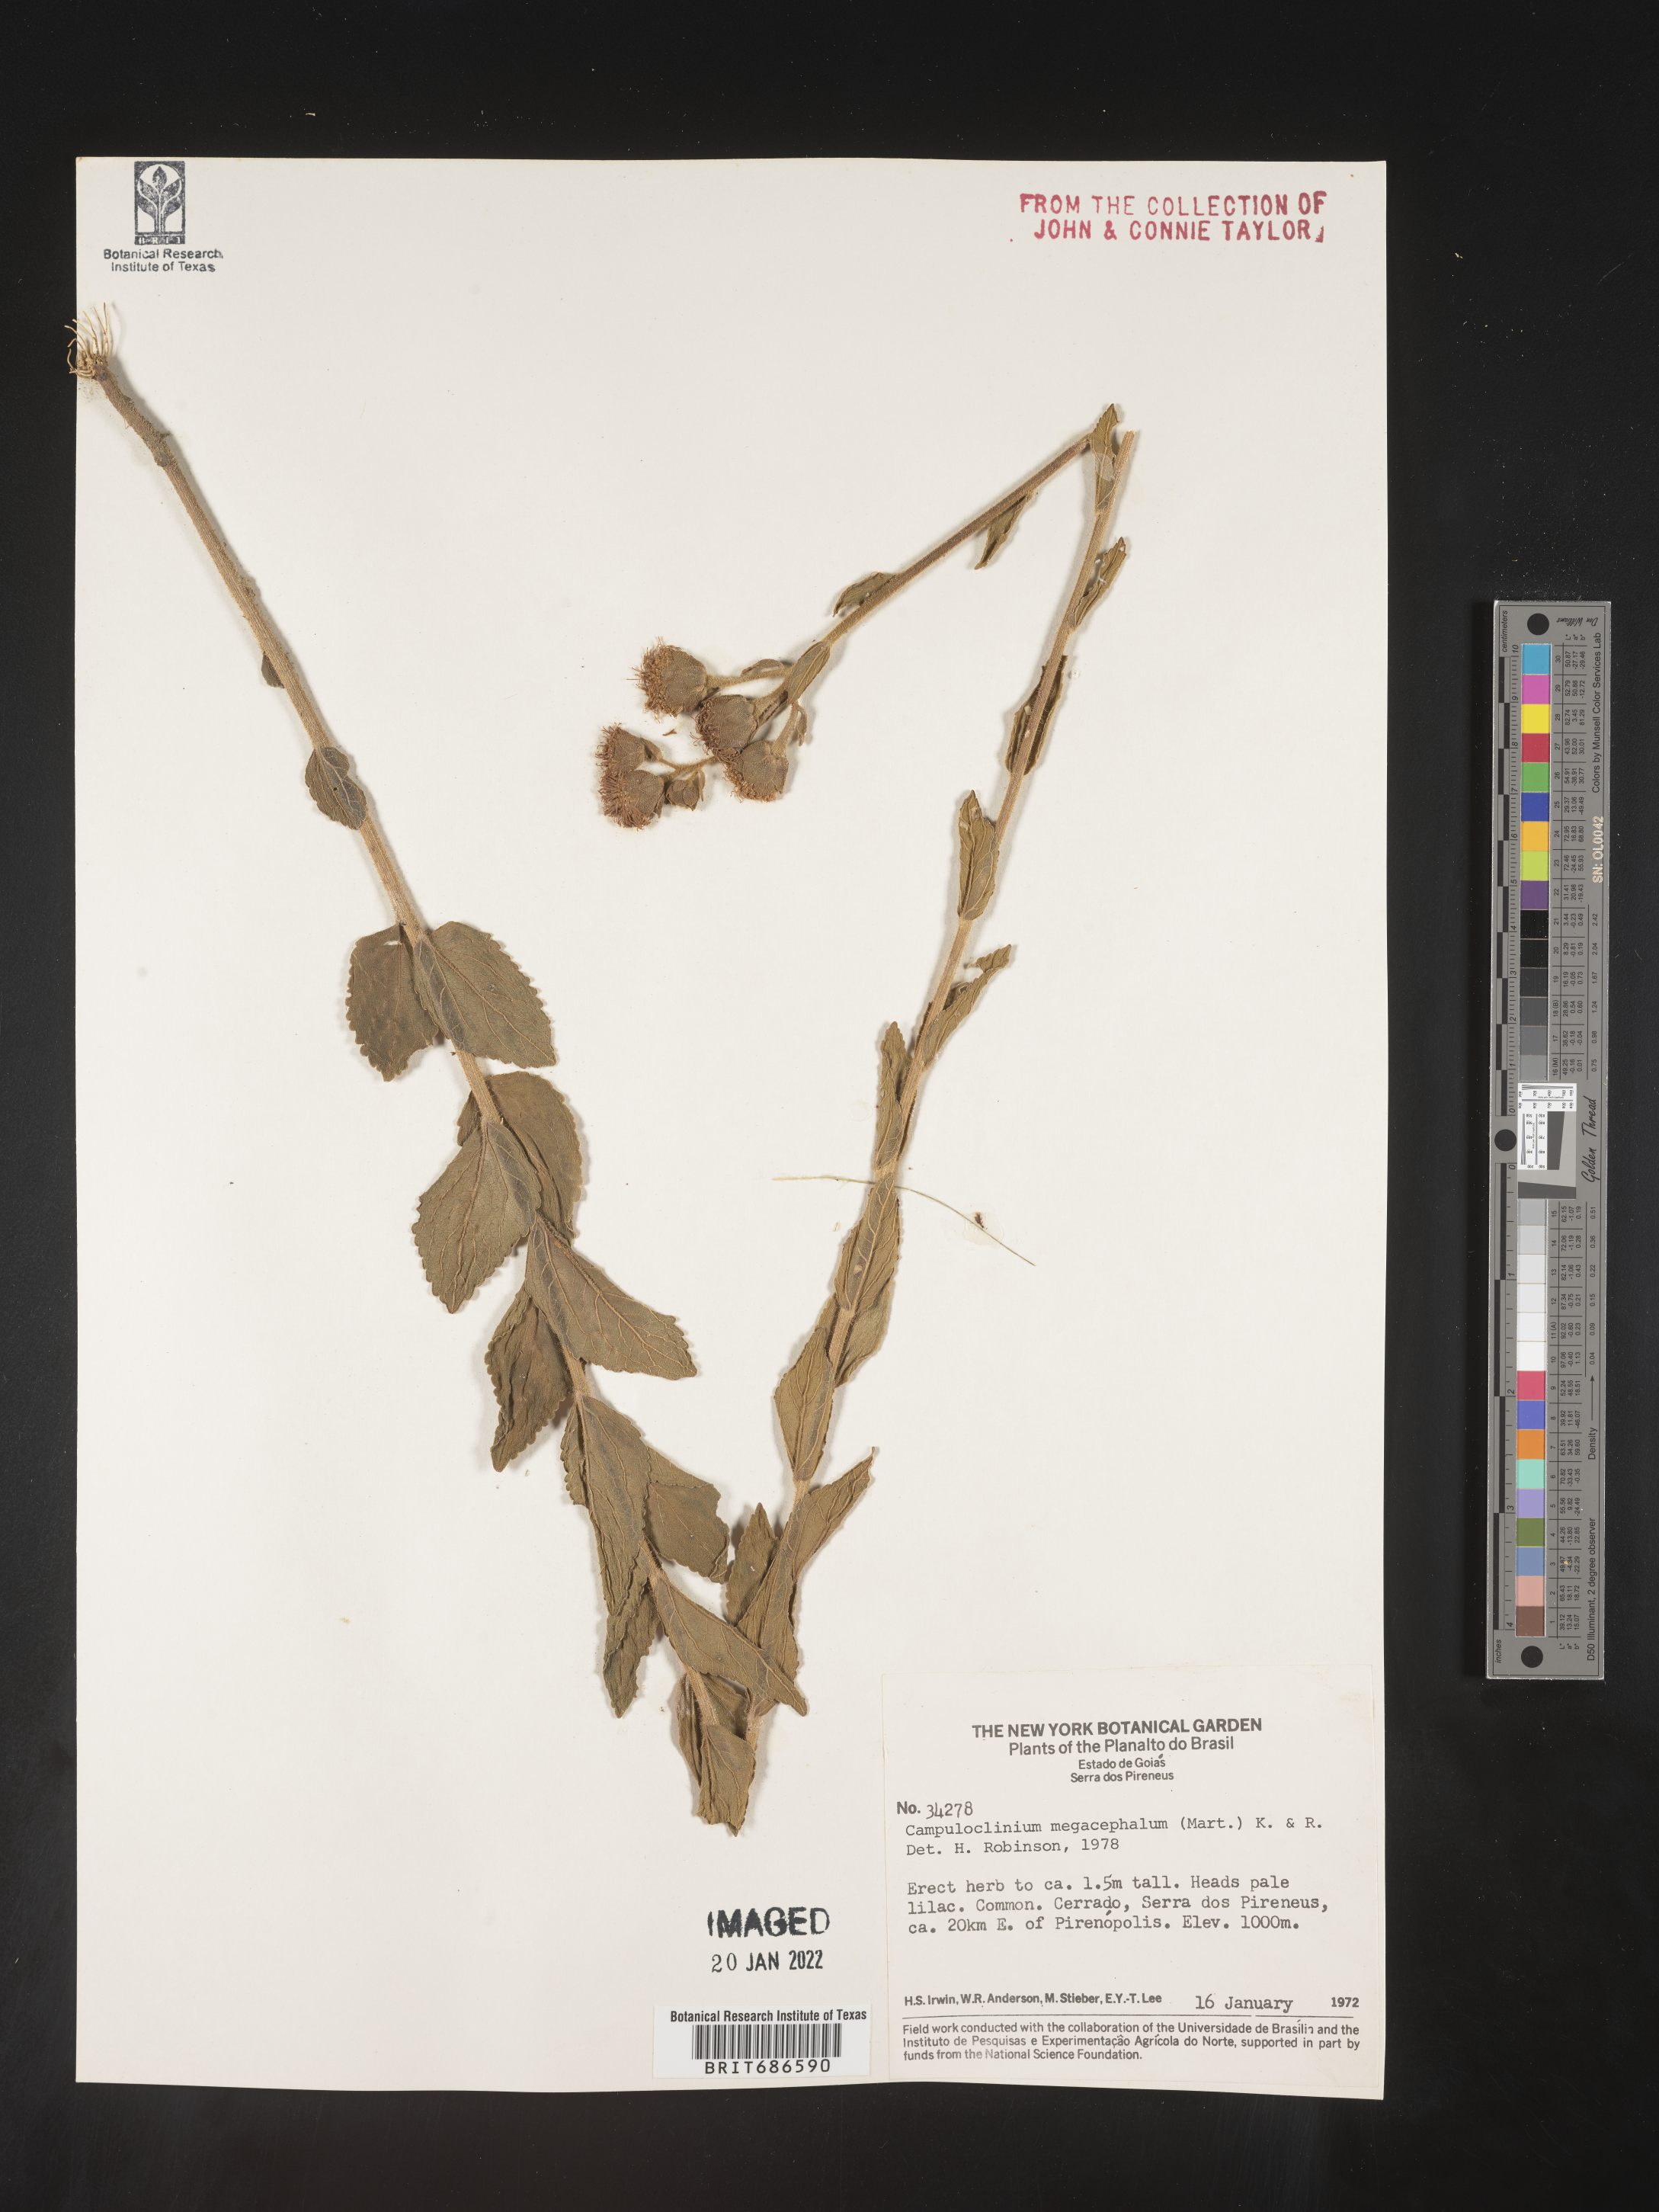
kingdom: Plantae
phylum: Tracheophyta
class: Magnoliopsida
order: Asterales
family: Asteraceae
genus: Campuloclinium
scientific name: Campuloclinium
